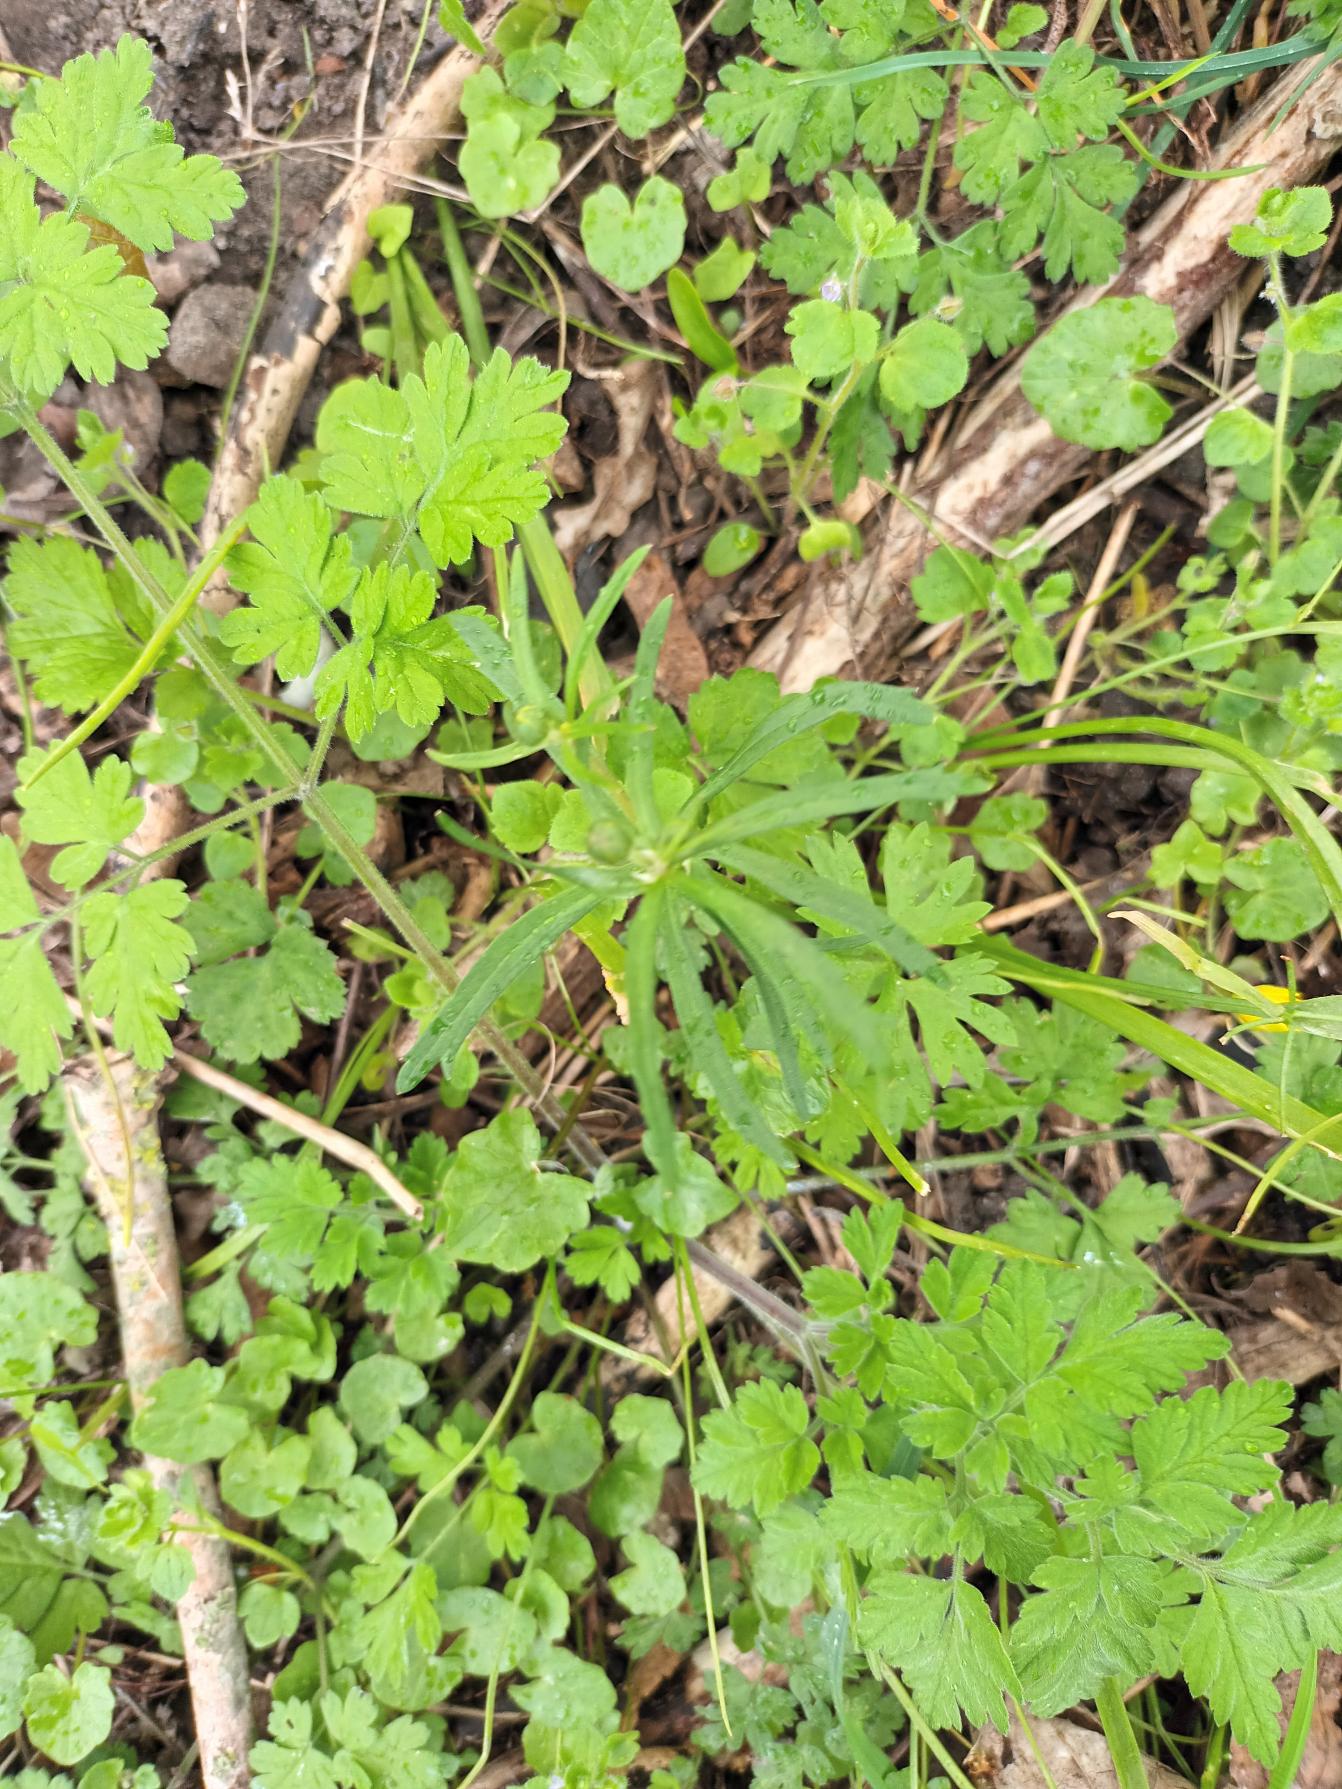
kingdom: Plantae
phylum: Tracheophyta
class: Magnoliopsida
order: Ranunculales
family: Ranunculaceae
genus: Ranunculus
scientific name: Ranunculus auricomus
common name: Nyrebladet ranunkel
